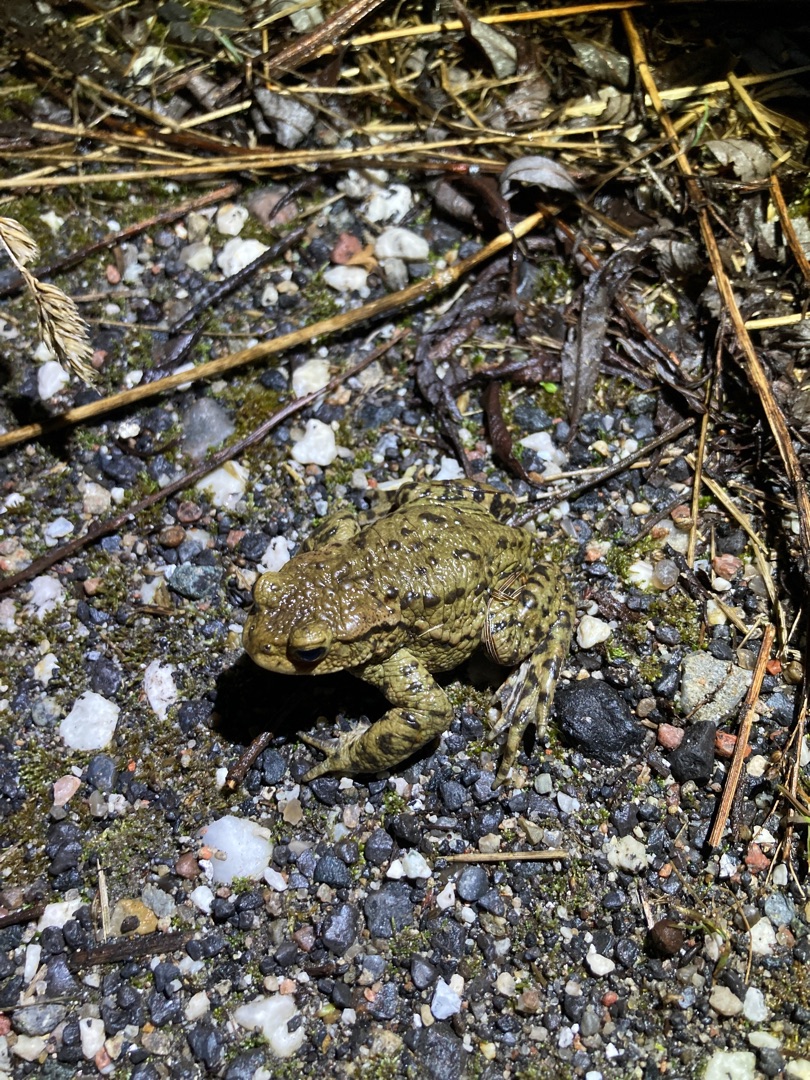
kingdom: Animalia
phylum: Chordata
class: Amphibia
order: Anura
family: Bufonidae
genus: Bufo
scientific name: Bufo bufo
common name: Skrubtudse
